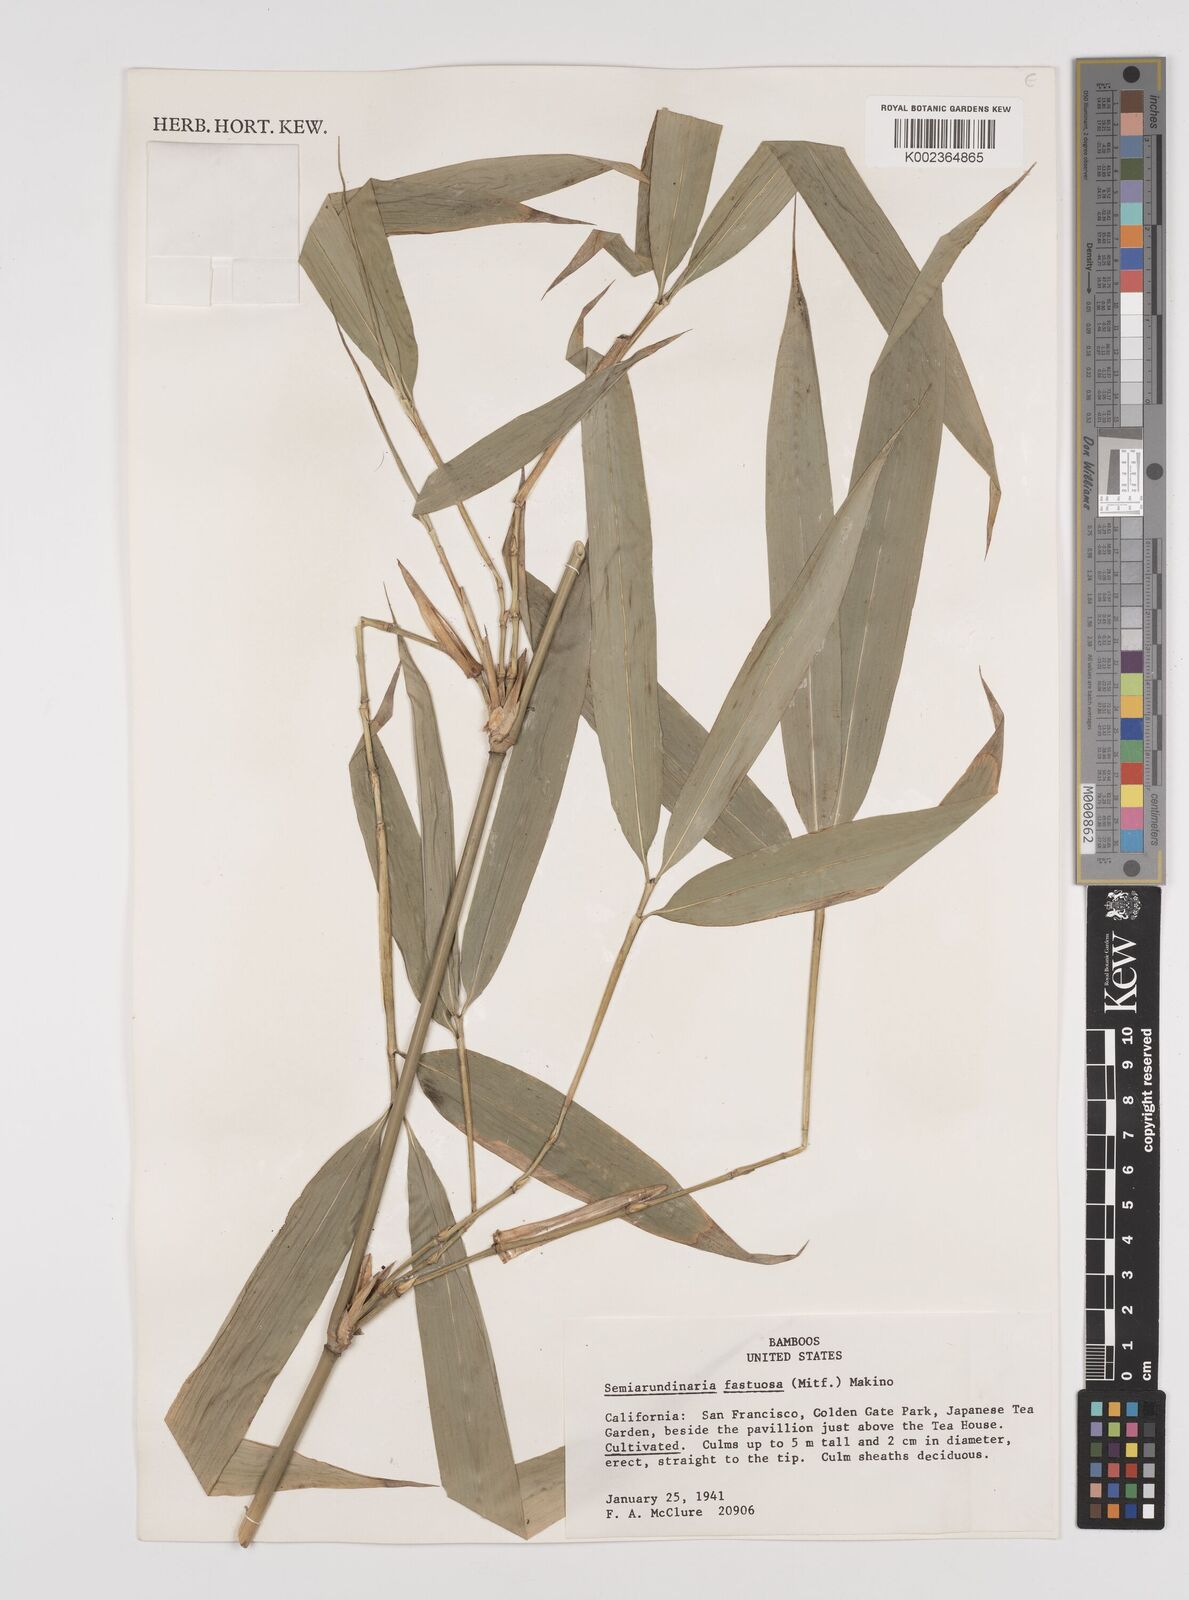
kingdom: Plantae
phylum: Tracheophyta
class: Liliopsida
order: Poales
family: Poaceae
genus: Semiarundinaria
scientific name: Semiarundinaria fastuosa
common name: Narihira bamboo
